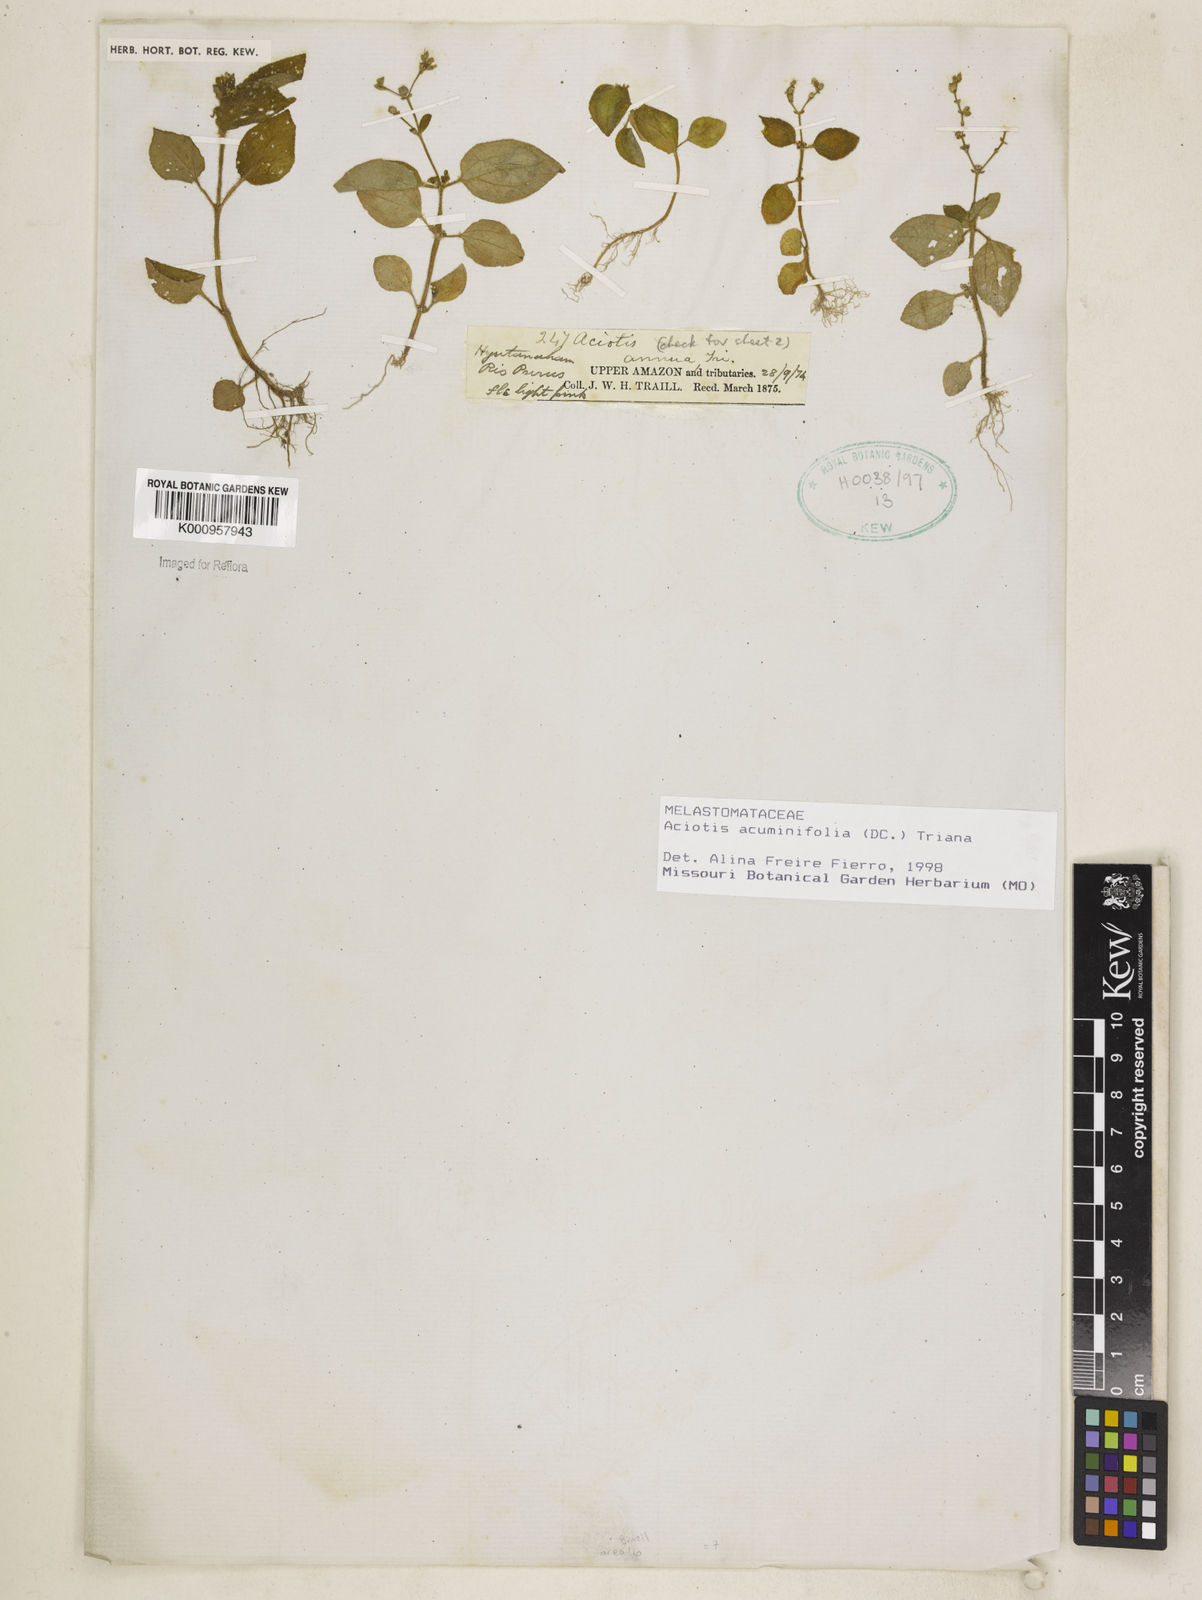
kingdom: Plantae
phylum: Tracheophyta
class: Magnoliopsida
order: Myrtales
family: Melastomataceae
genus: Aciotis
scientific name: Aciotis acuminifolia
